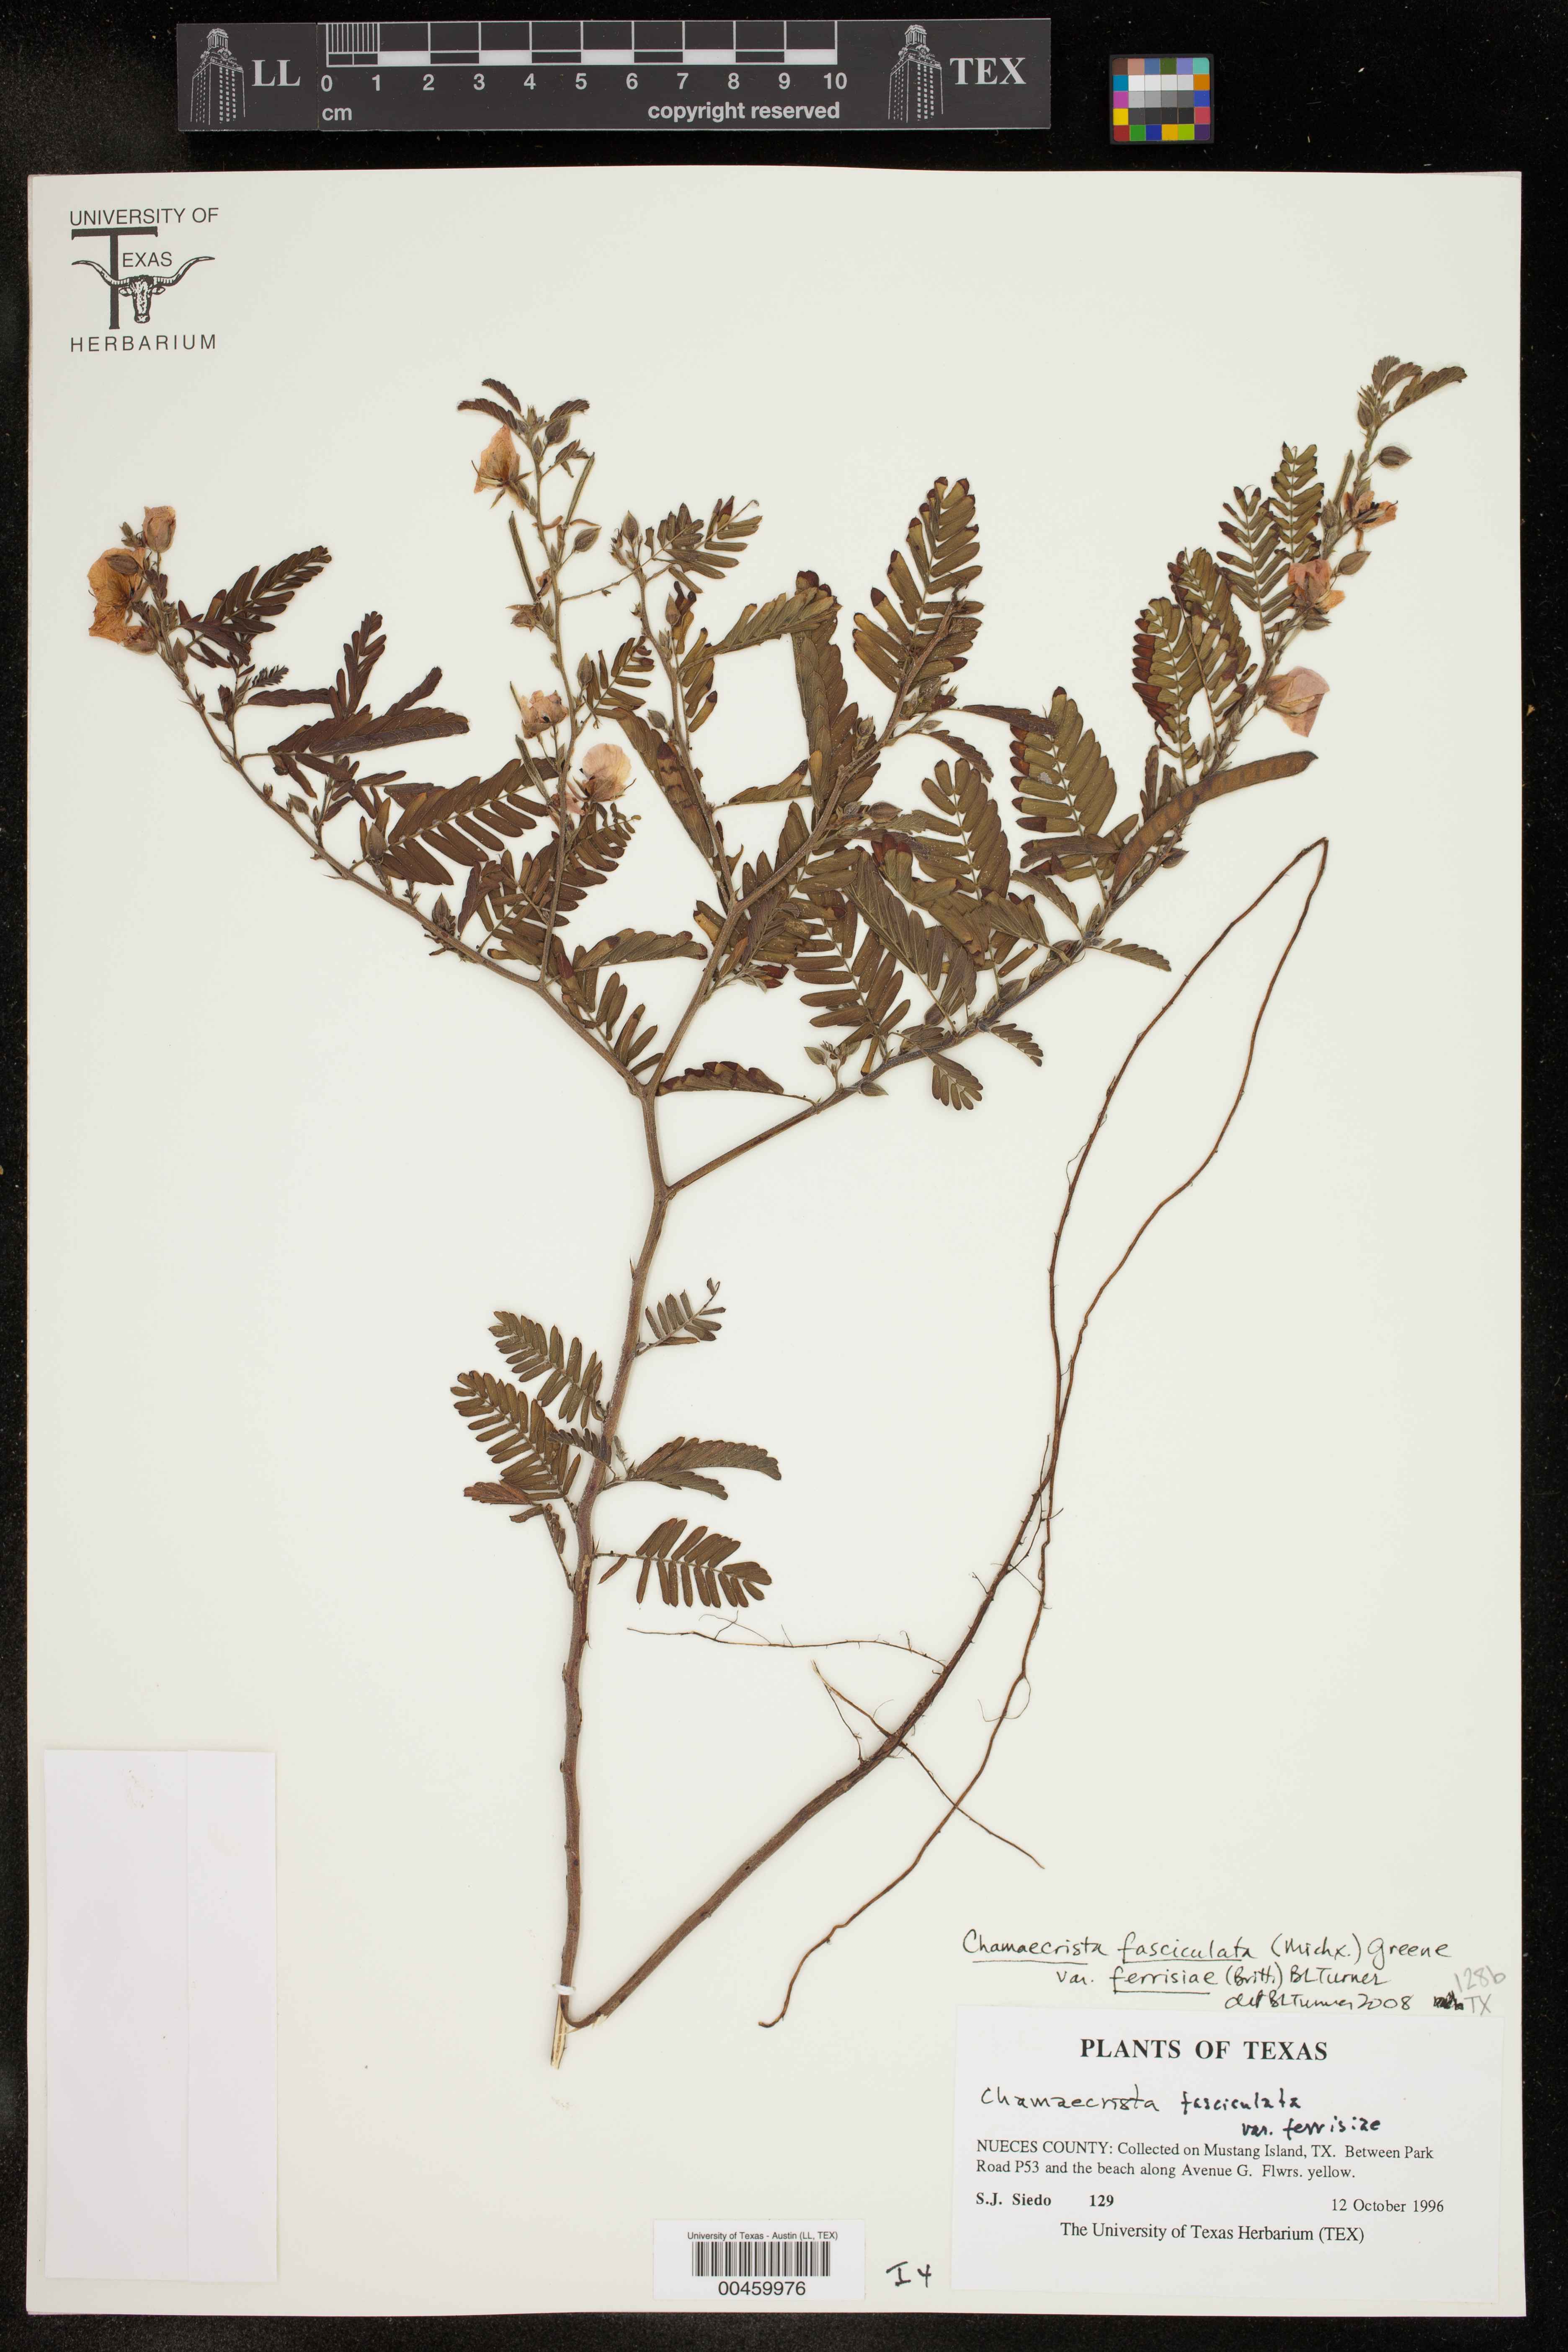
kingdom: Plantae
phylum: Tracheophyta
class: Magnoliopsida
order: Fabales
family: Fabaceae
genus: Chamaecrista
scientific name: Chamaecrista fasciculata
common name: Golden cassia
